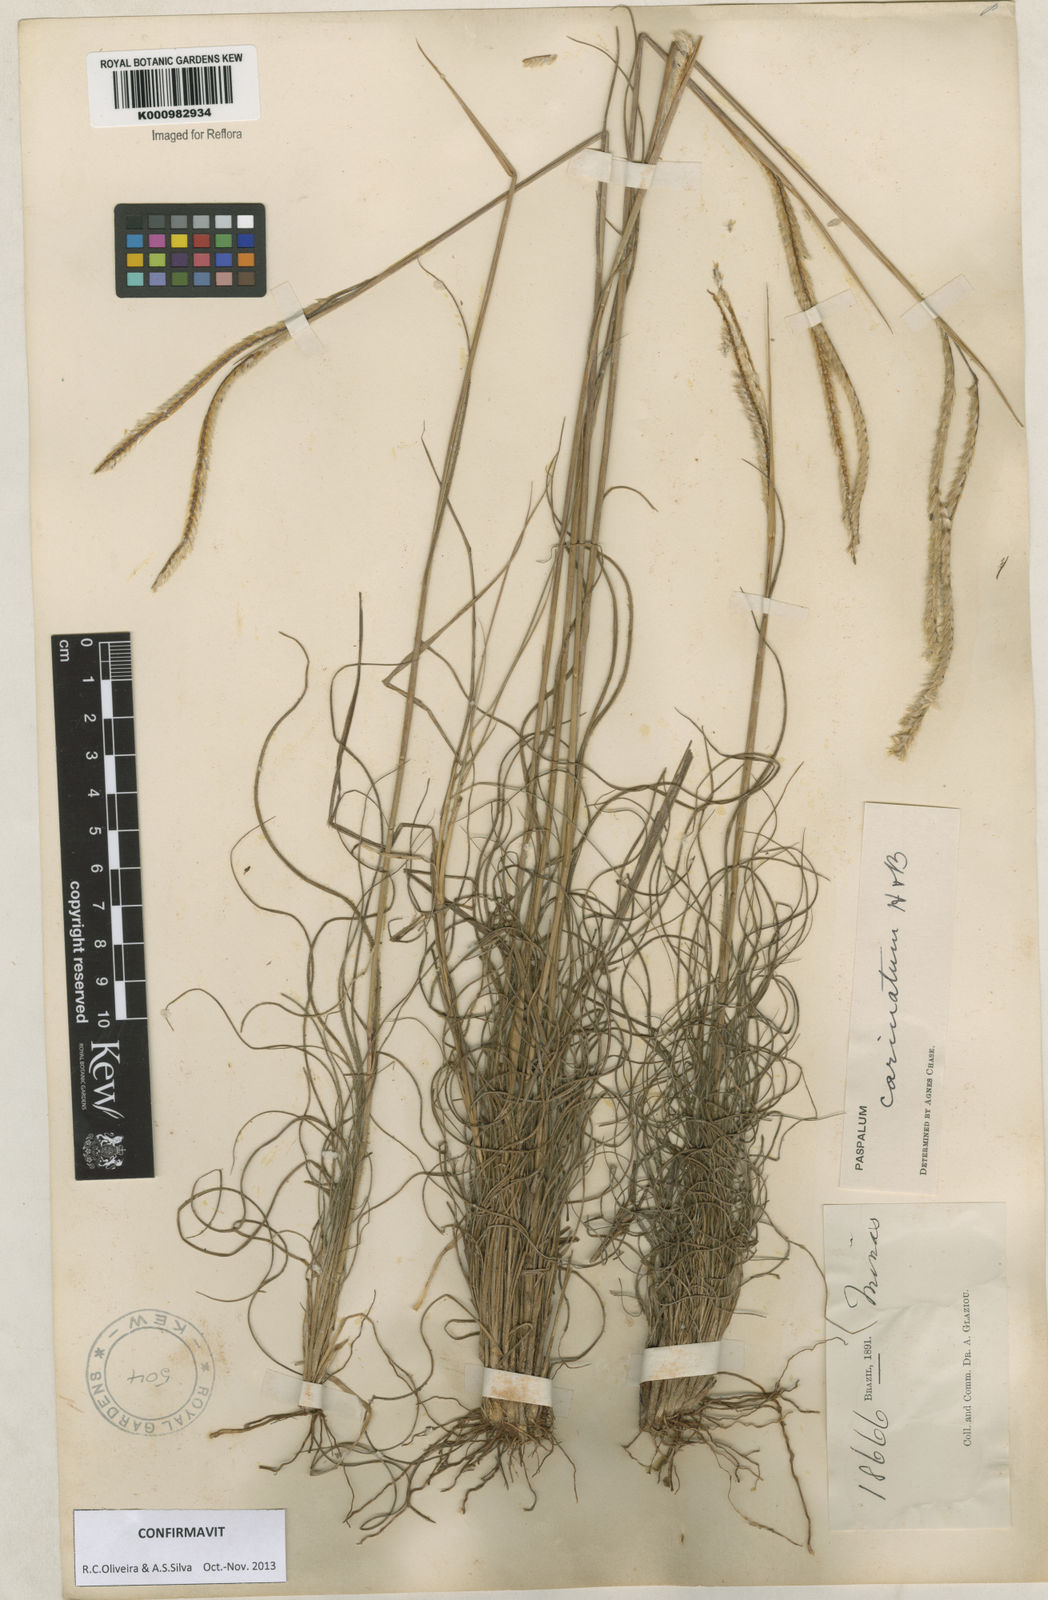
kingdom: Plantae
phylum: Tracheophyta
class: Liliopsida
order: Poales
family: Poaceae
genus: Paspalum
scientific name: Paspalum
